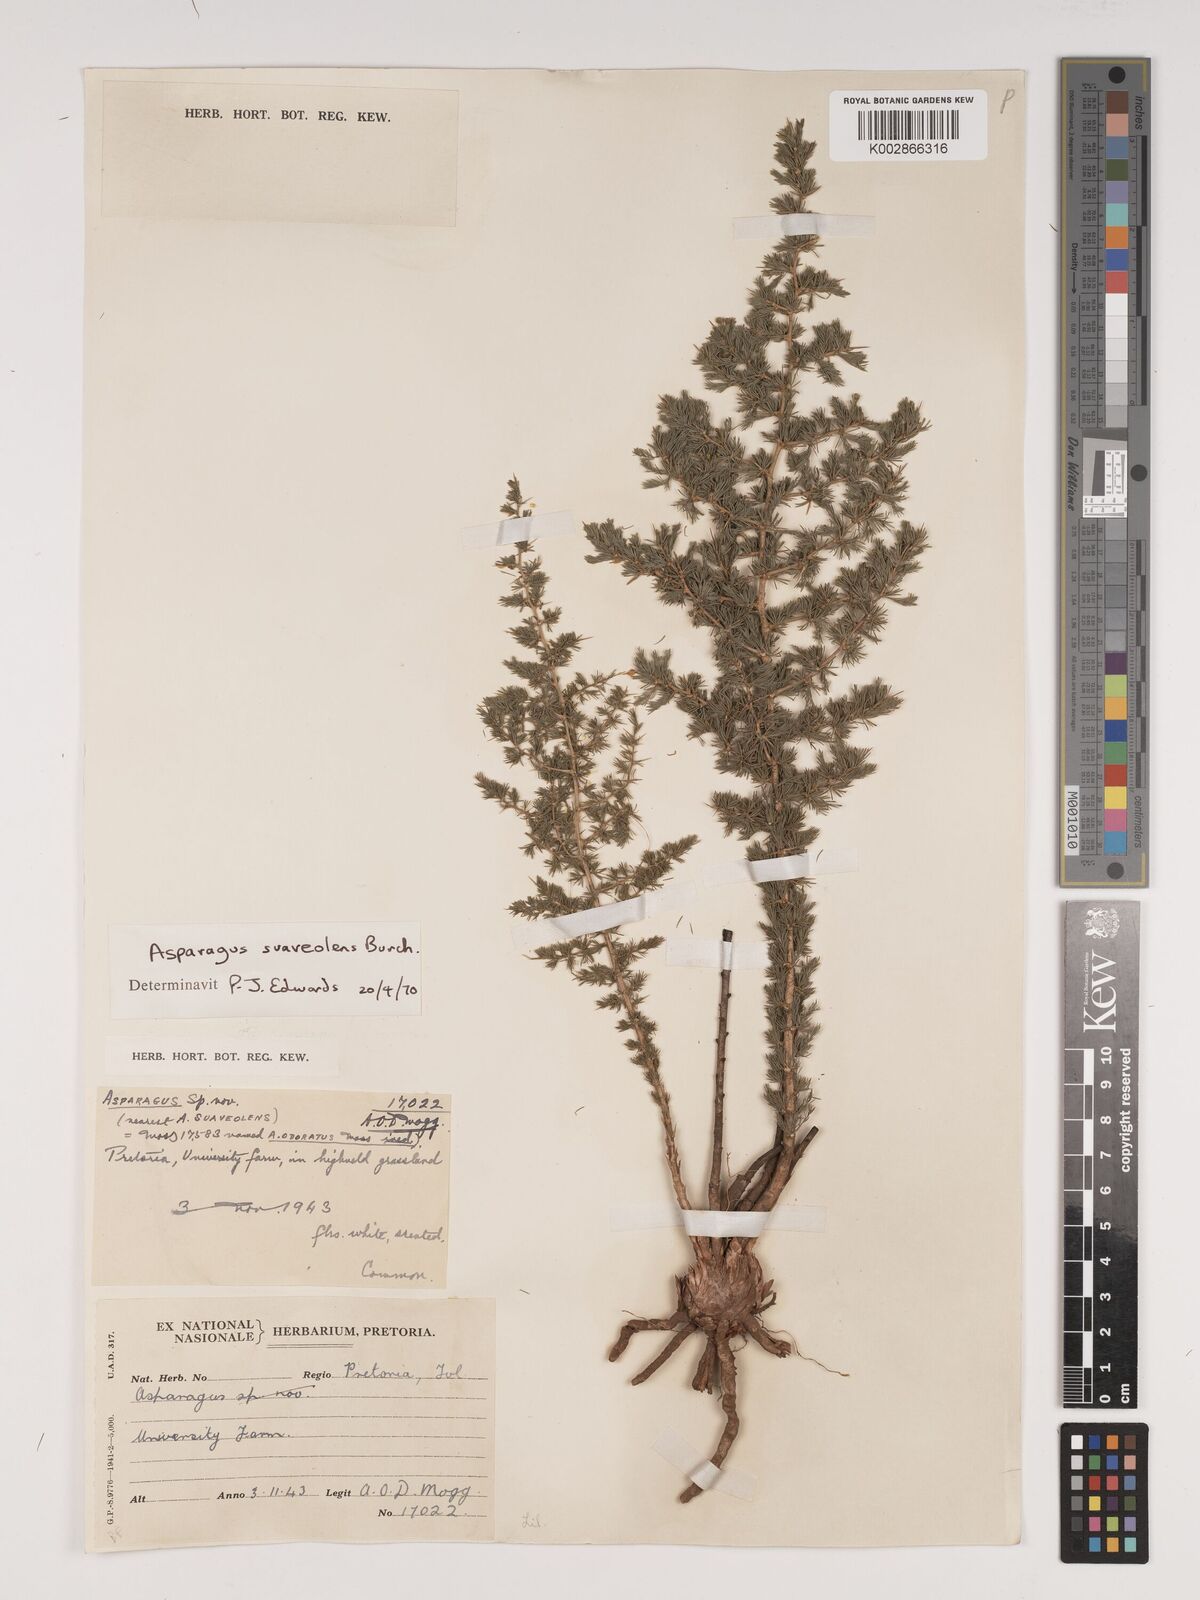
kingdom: Plantae
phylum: Tracheophyta
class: Liliopsida
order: Asparagales
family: Asparagaceae
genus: Asparagus
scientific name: Asparagus suaveolens
